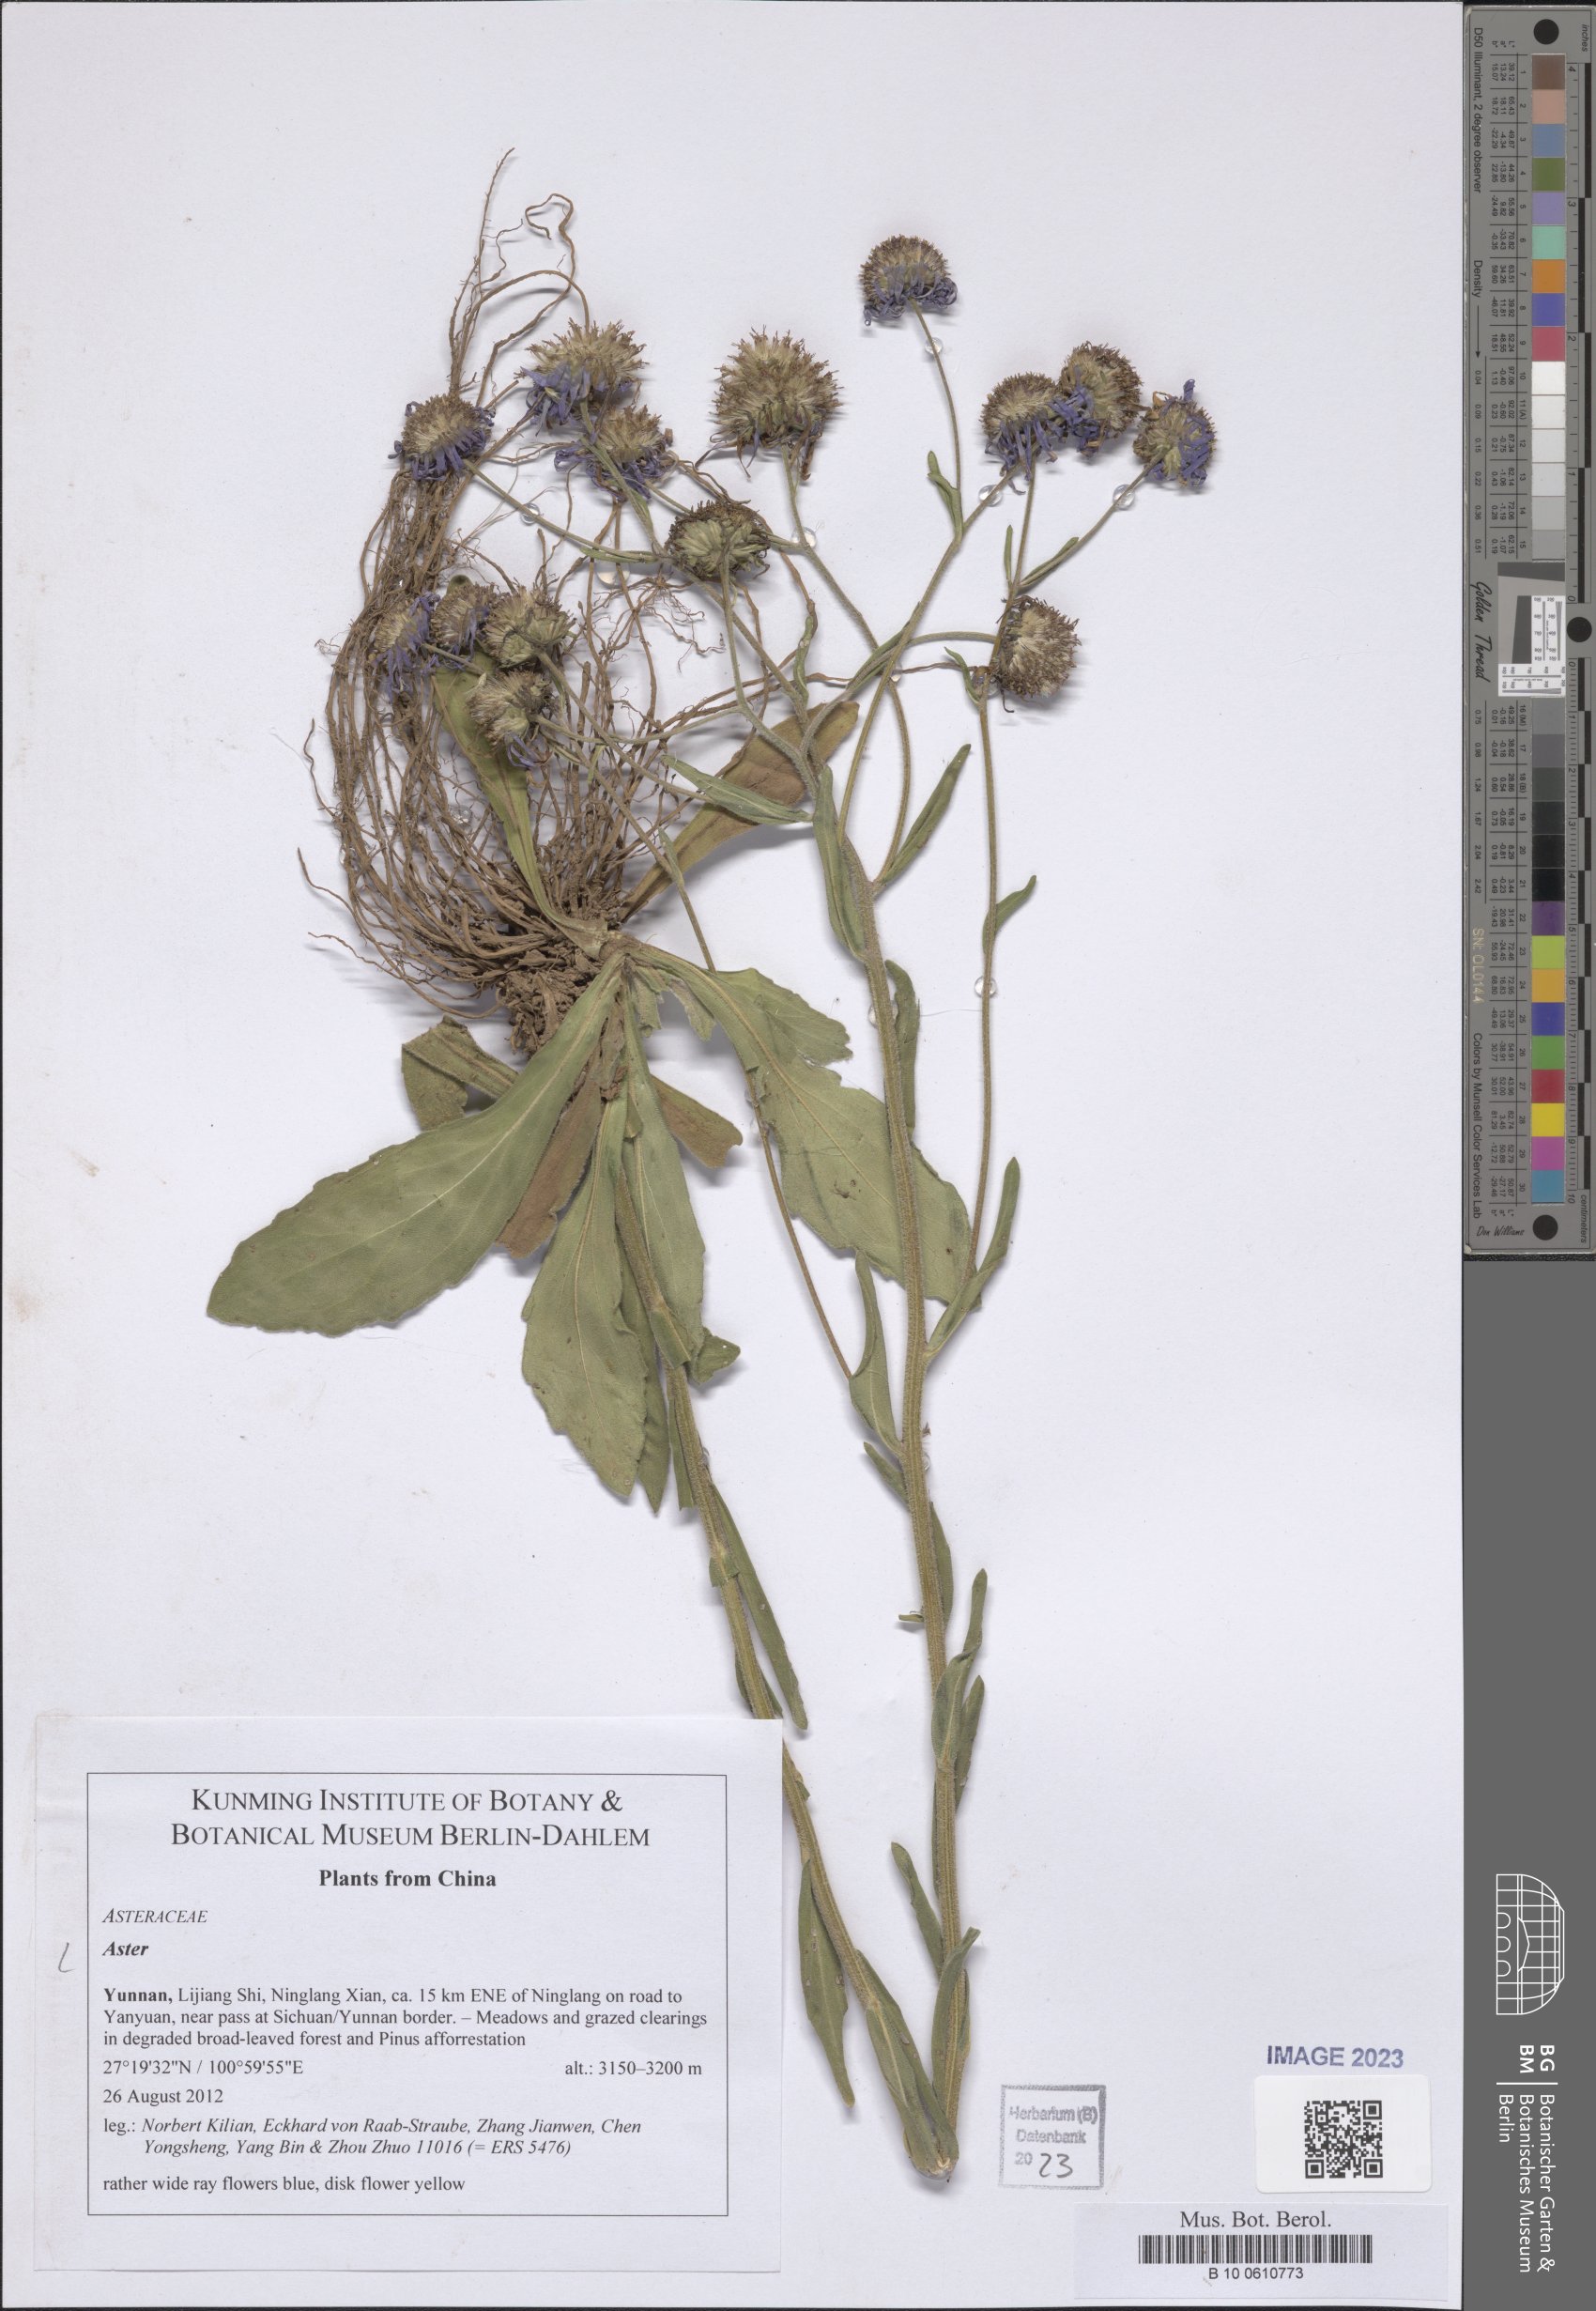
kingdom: Plantae
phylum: Tracheophyta
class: Magnoliopsida
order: Asterales
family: Asteraceae
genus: Aster
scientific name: Aster
